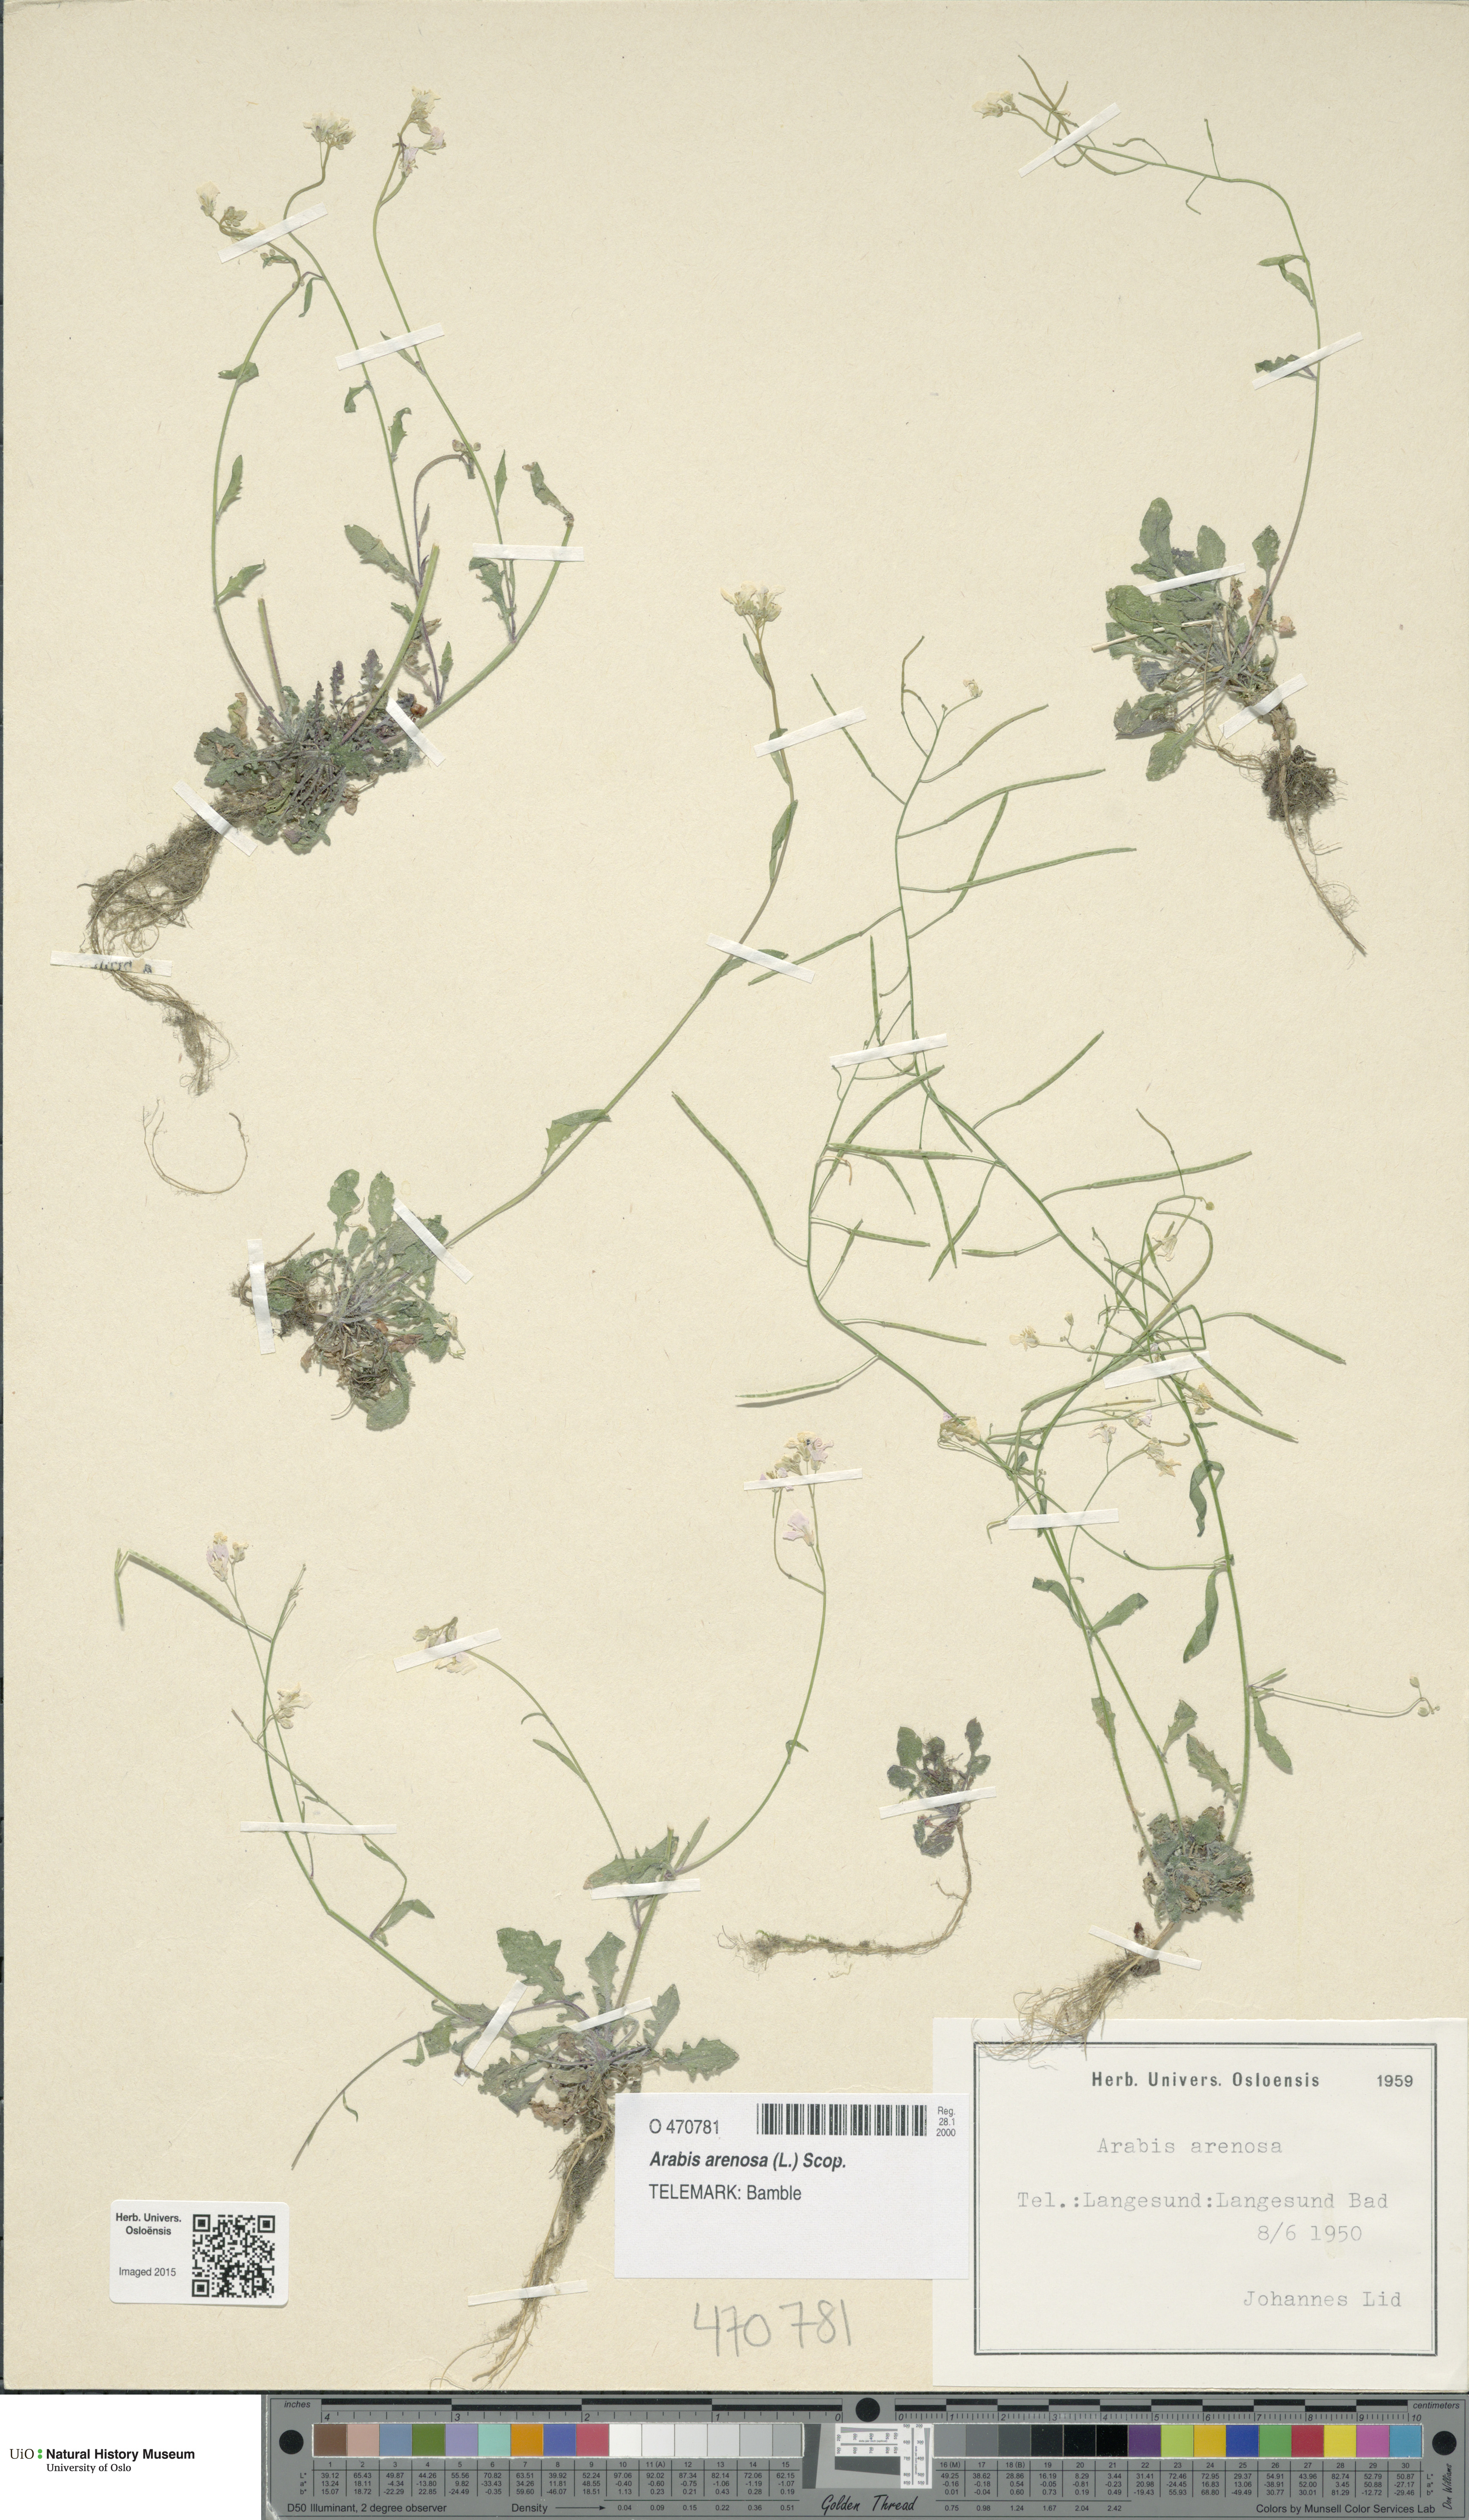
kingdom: Plantae
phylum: Tracheophyta
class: Magnoliopsida
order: Brassicales
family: Brassicaceae
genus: Arabidopsis
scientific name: Arabidopsis arenosa
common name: Sand rock-cress
